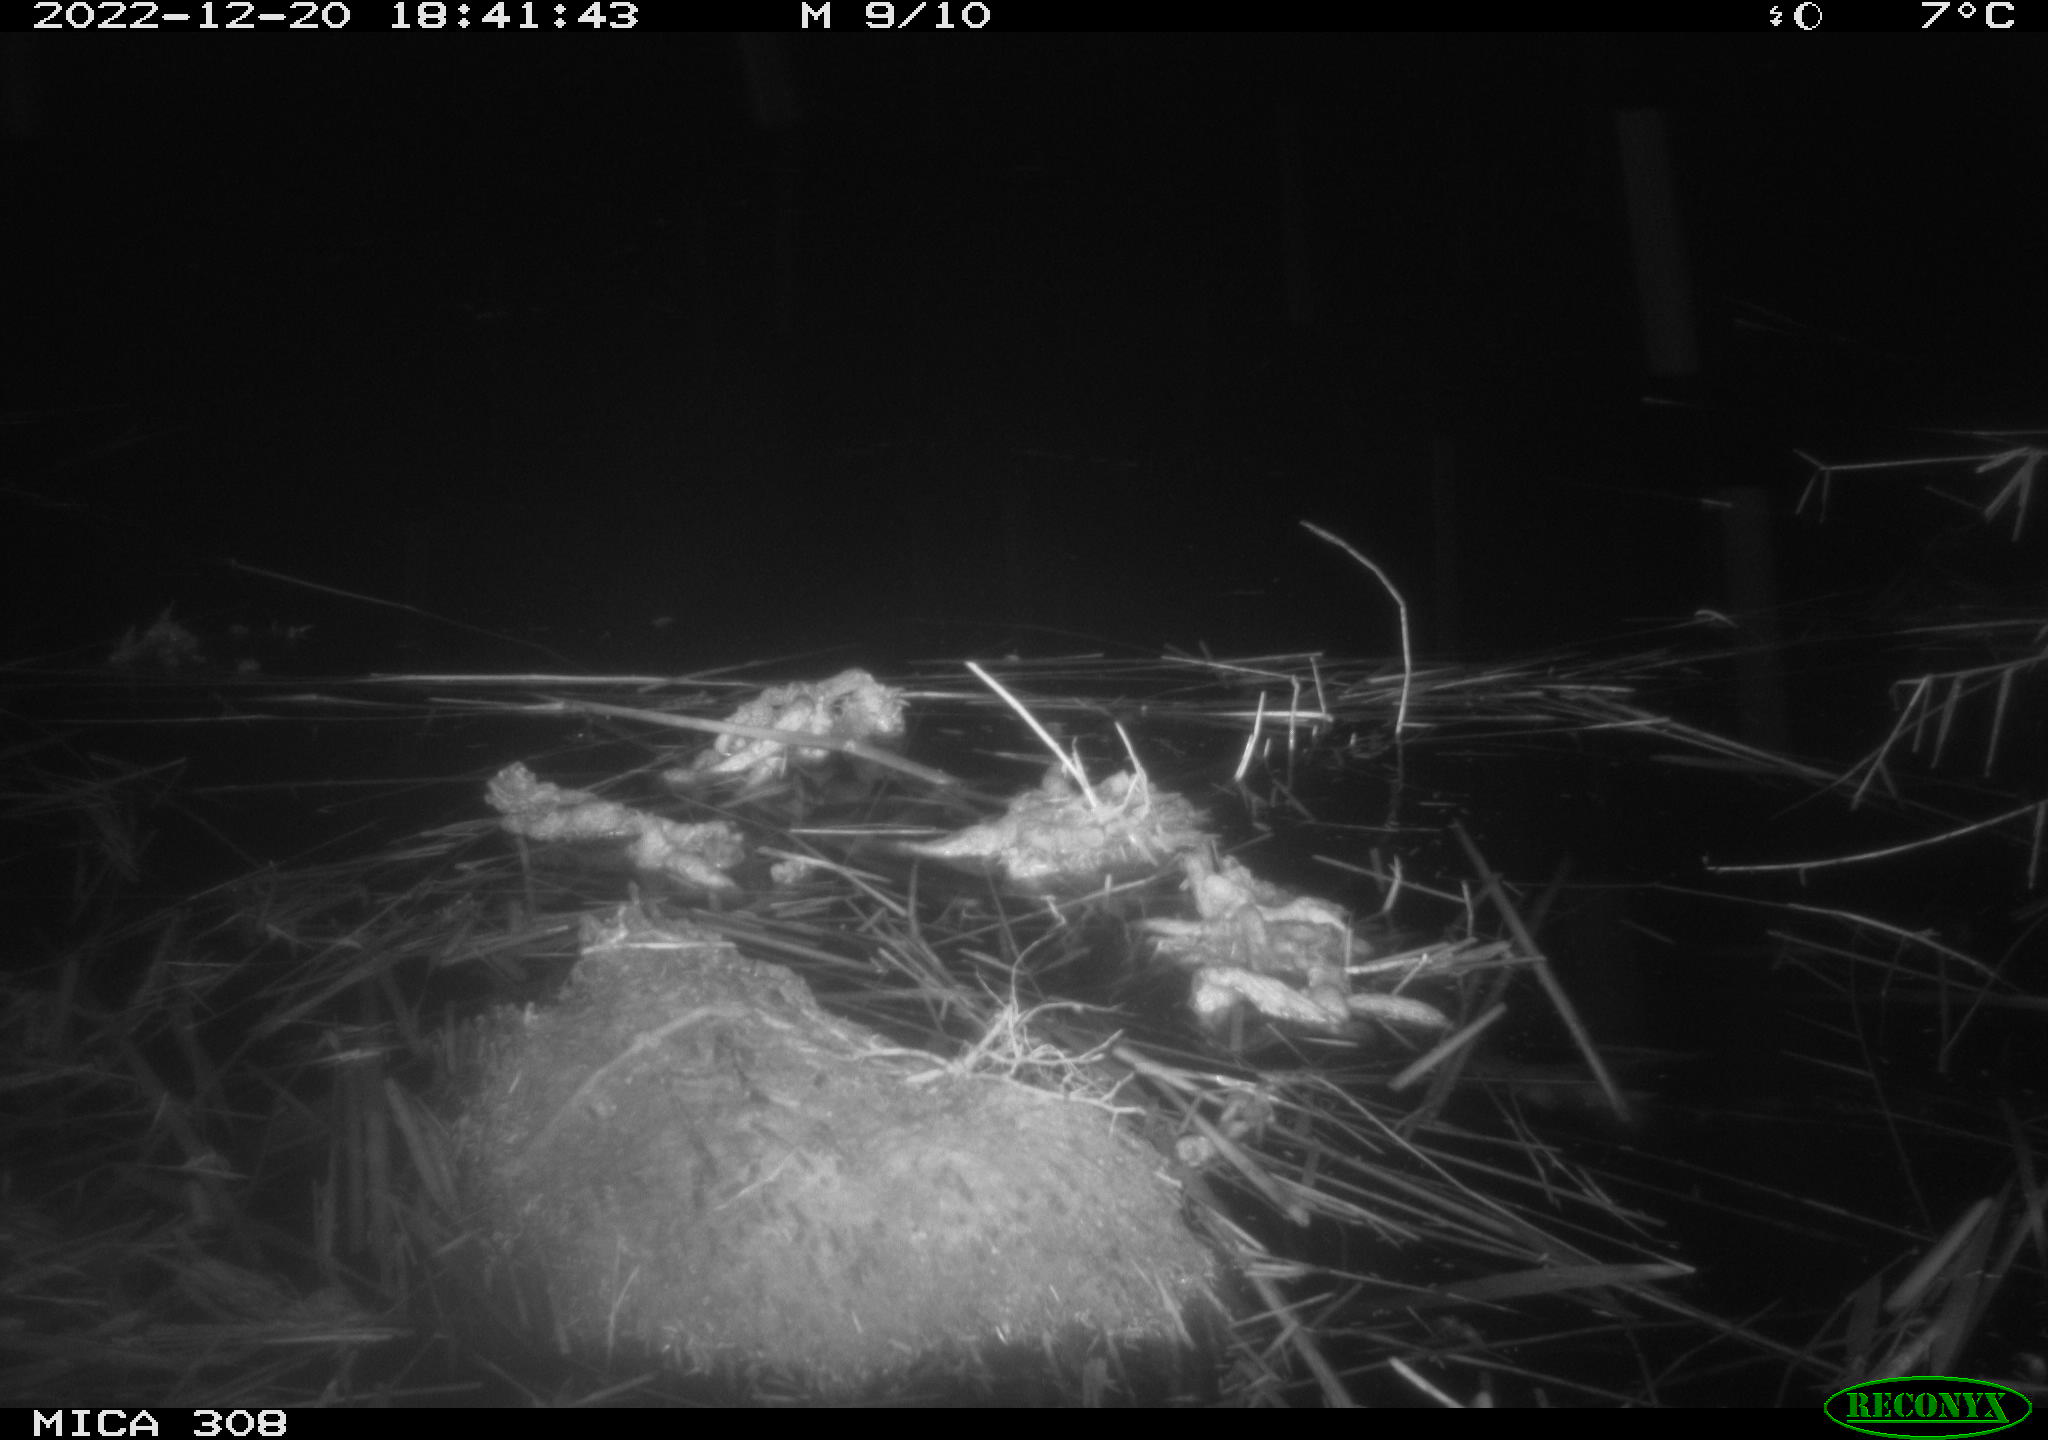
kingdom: Animalia
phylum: Chordata
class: Aves
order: Anseriformes
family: Anatidae
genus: Anas
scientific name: Anas
